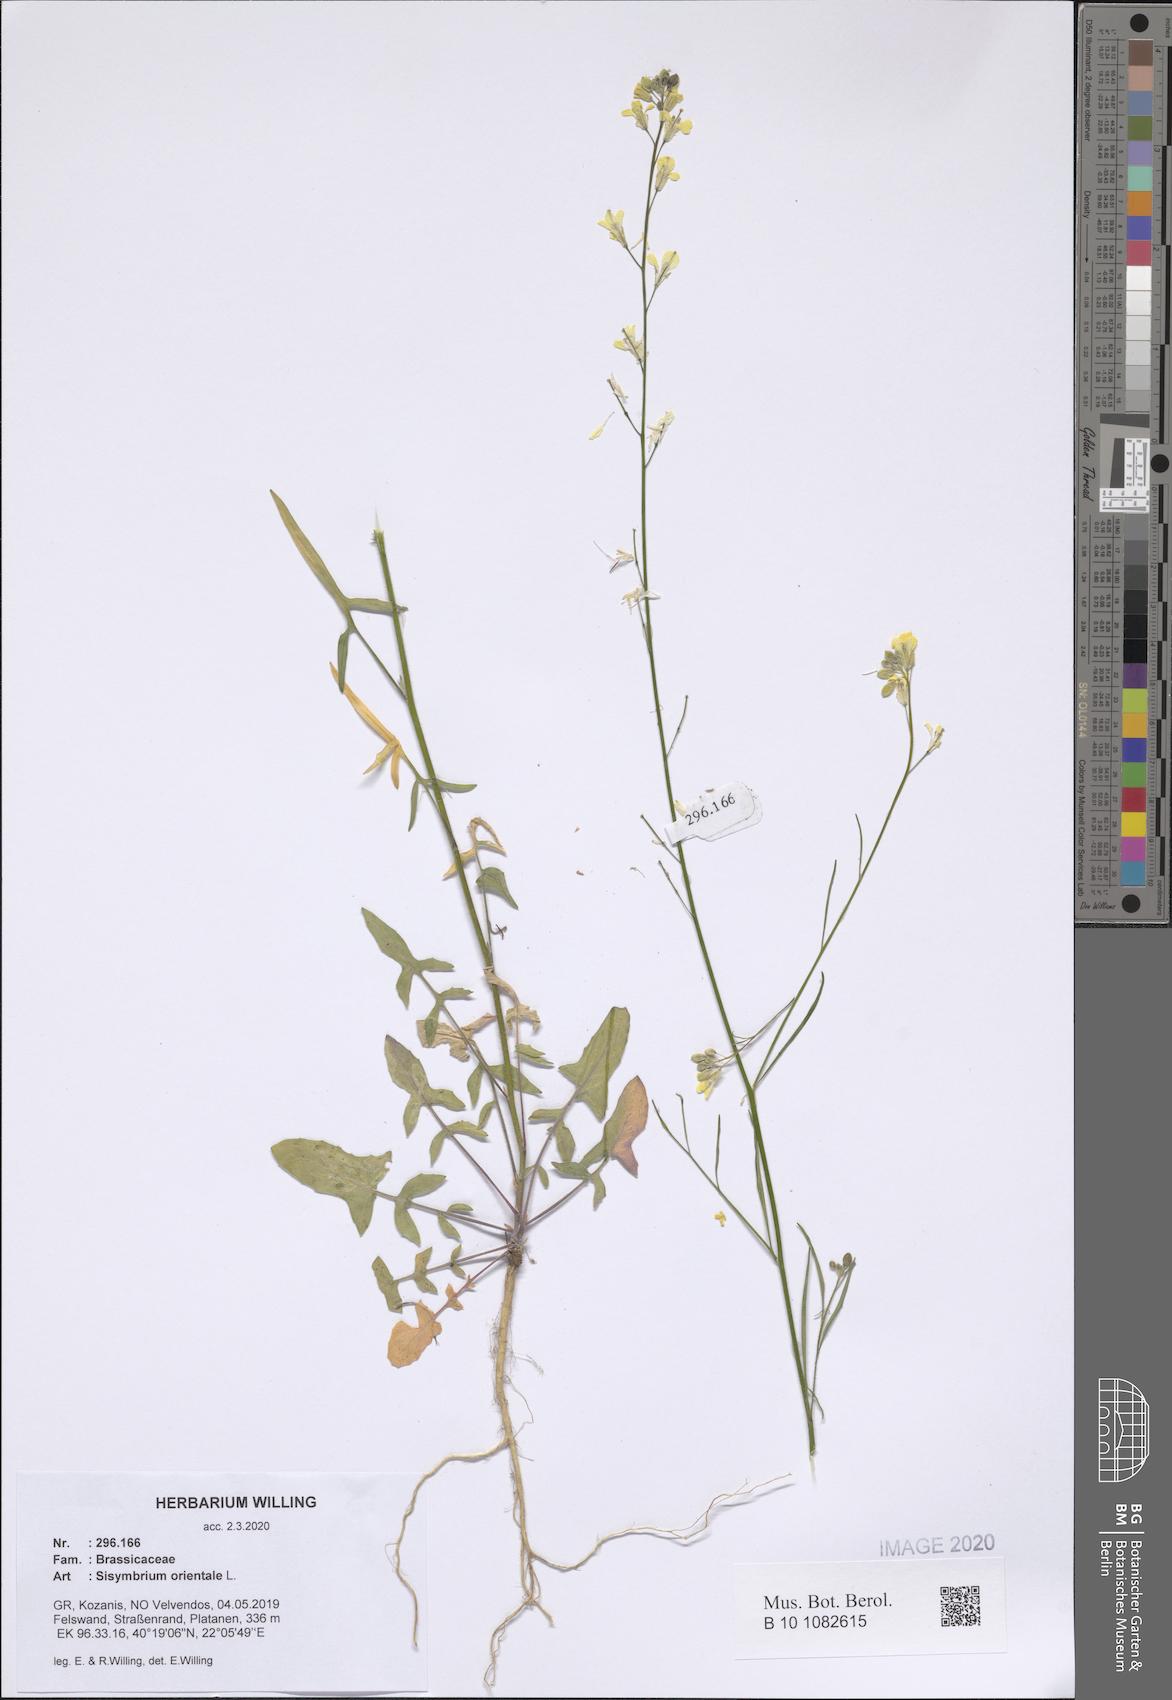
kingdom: Plantae
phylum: Tracheophyta
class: Magnoliopsida
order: Brassicales
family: Brassicaceae
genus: Sisymbrium
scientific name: Sisymbrium orientale
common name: Eastern rocket
